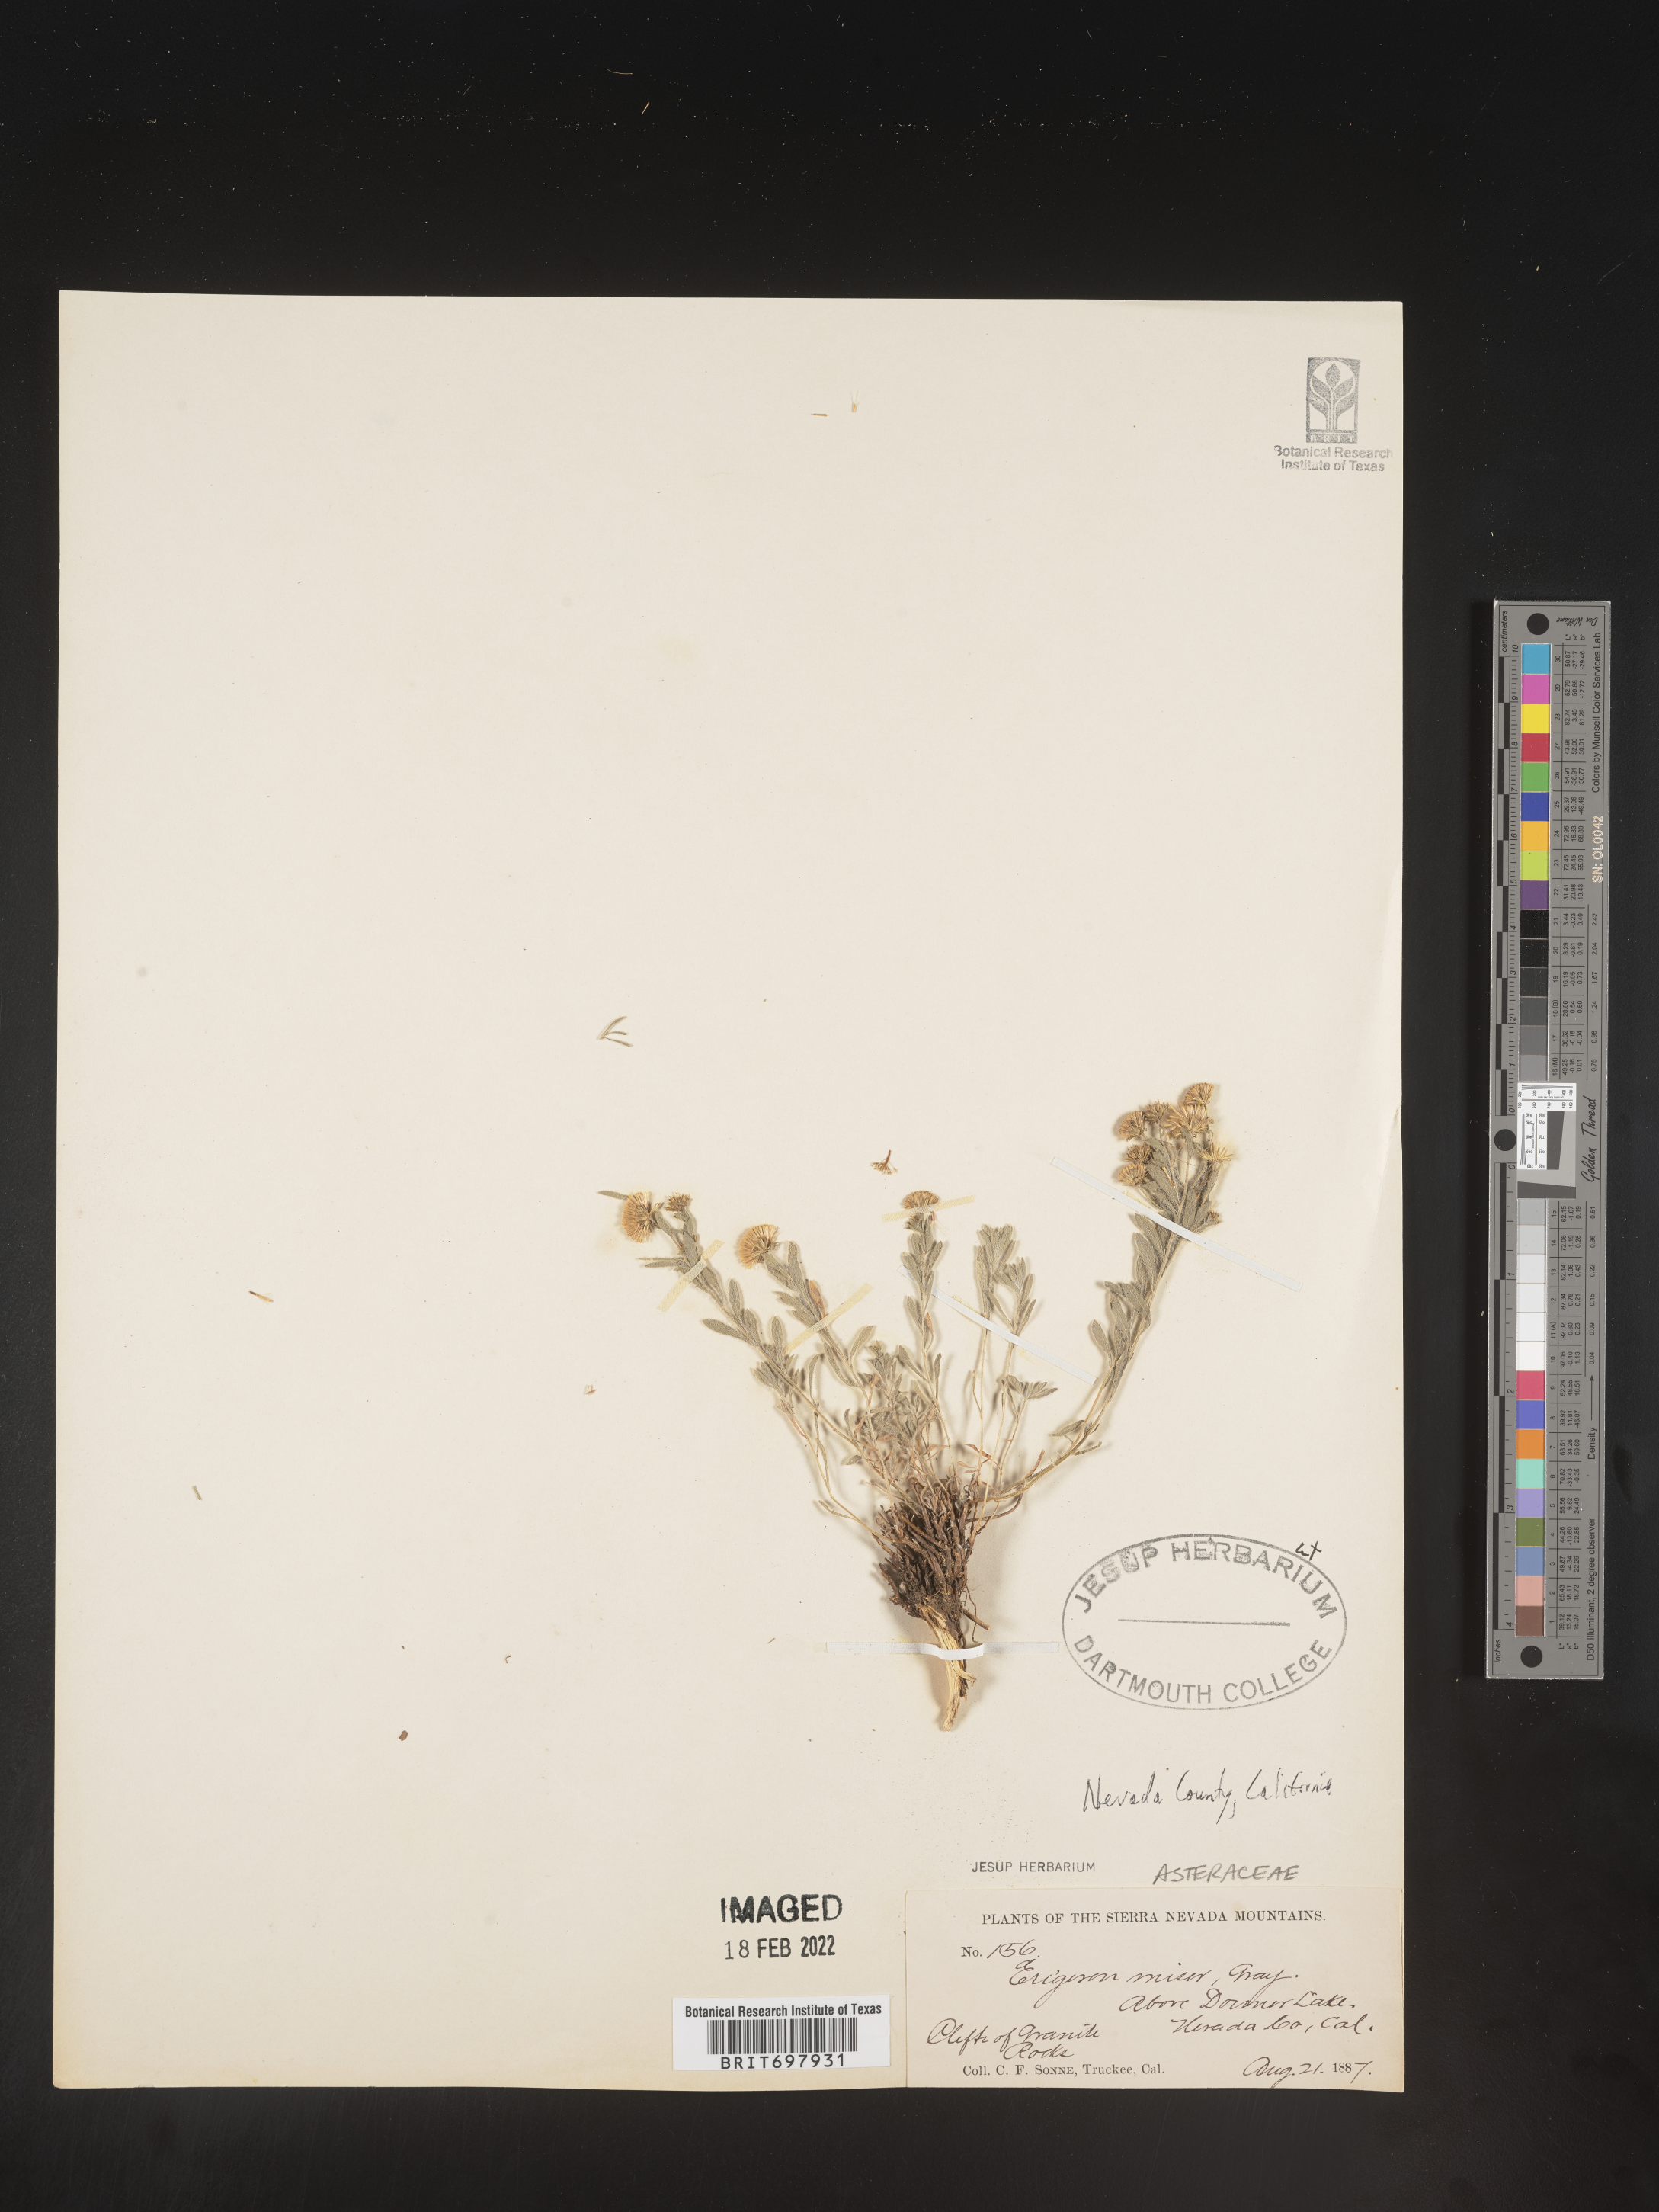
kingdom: Plantae
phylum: Tracheophyta
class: Magnoliopsida
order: Asterales
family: Asteraceae
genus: Erigeron
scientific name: Erigeron miser
